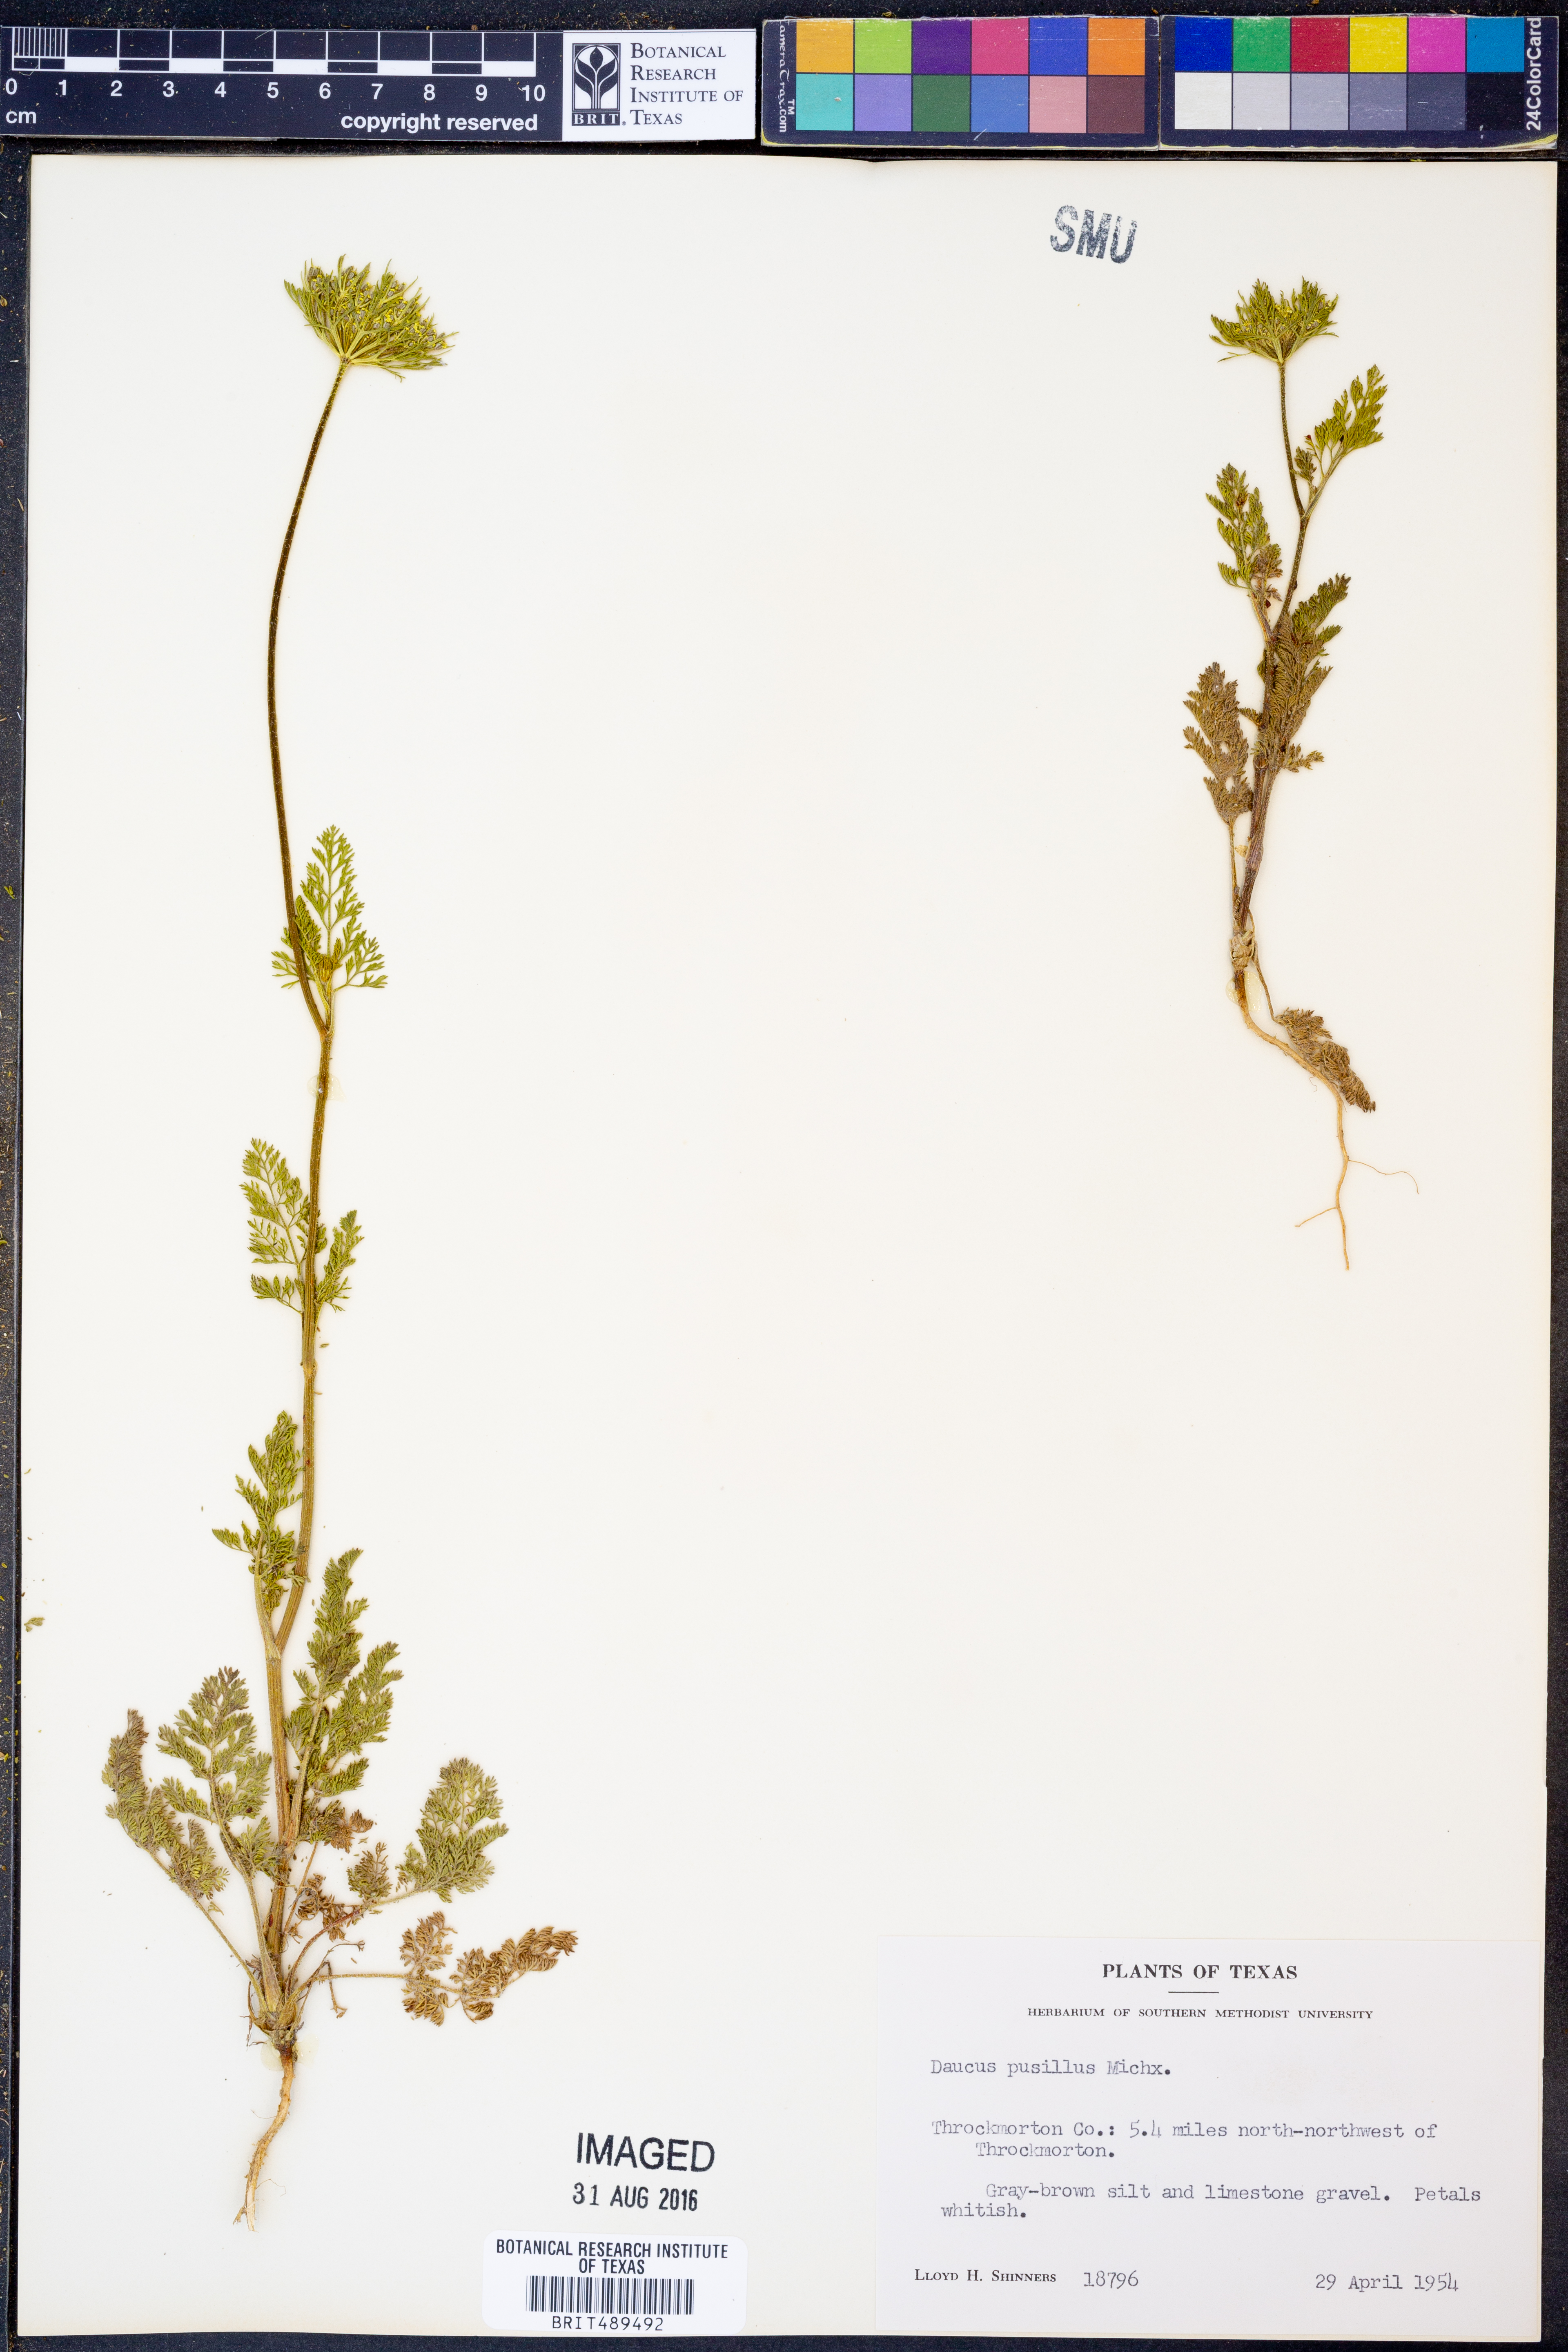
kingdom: Plantae
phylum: Tracheophyta
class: Magnoliopsida
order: Apiales
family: Apiaceae
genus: Daucus
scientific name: Daucus pusillus
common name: Southwest wild carrot
